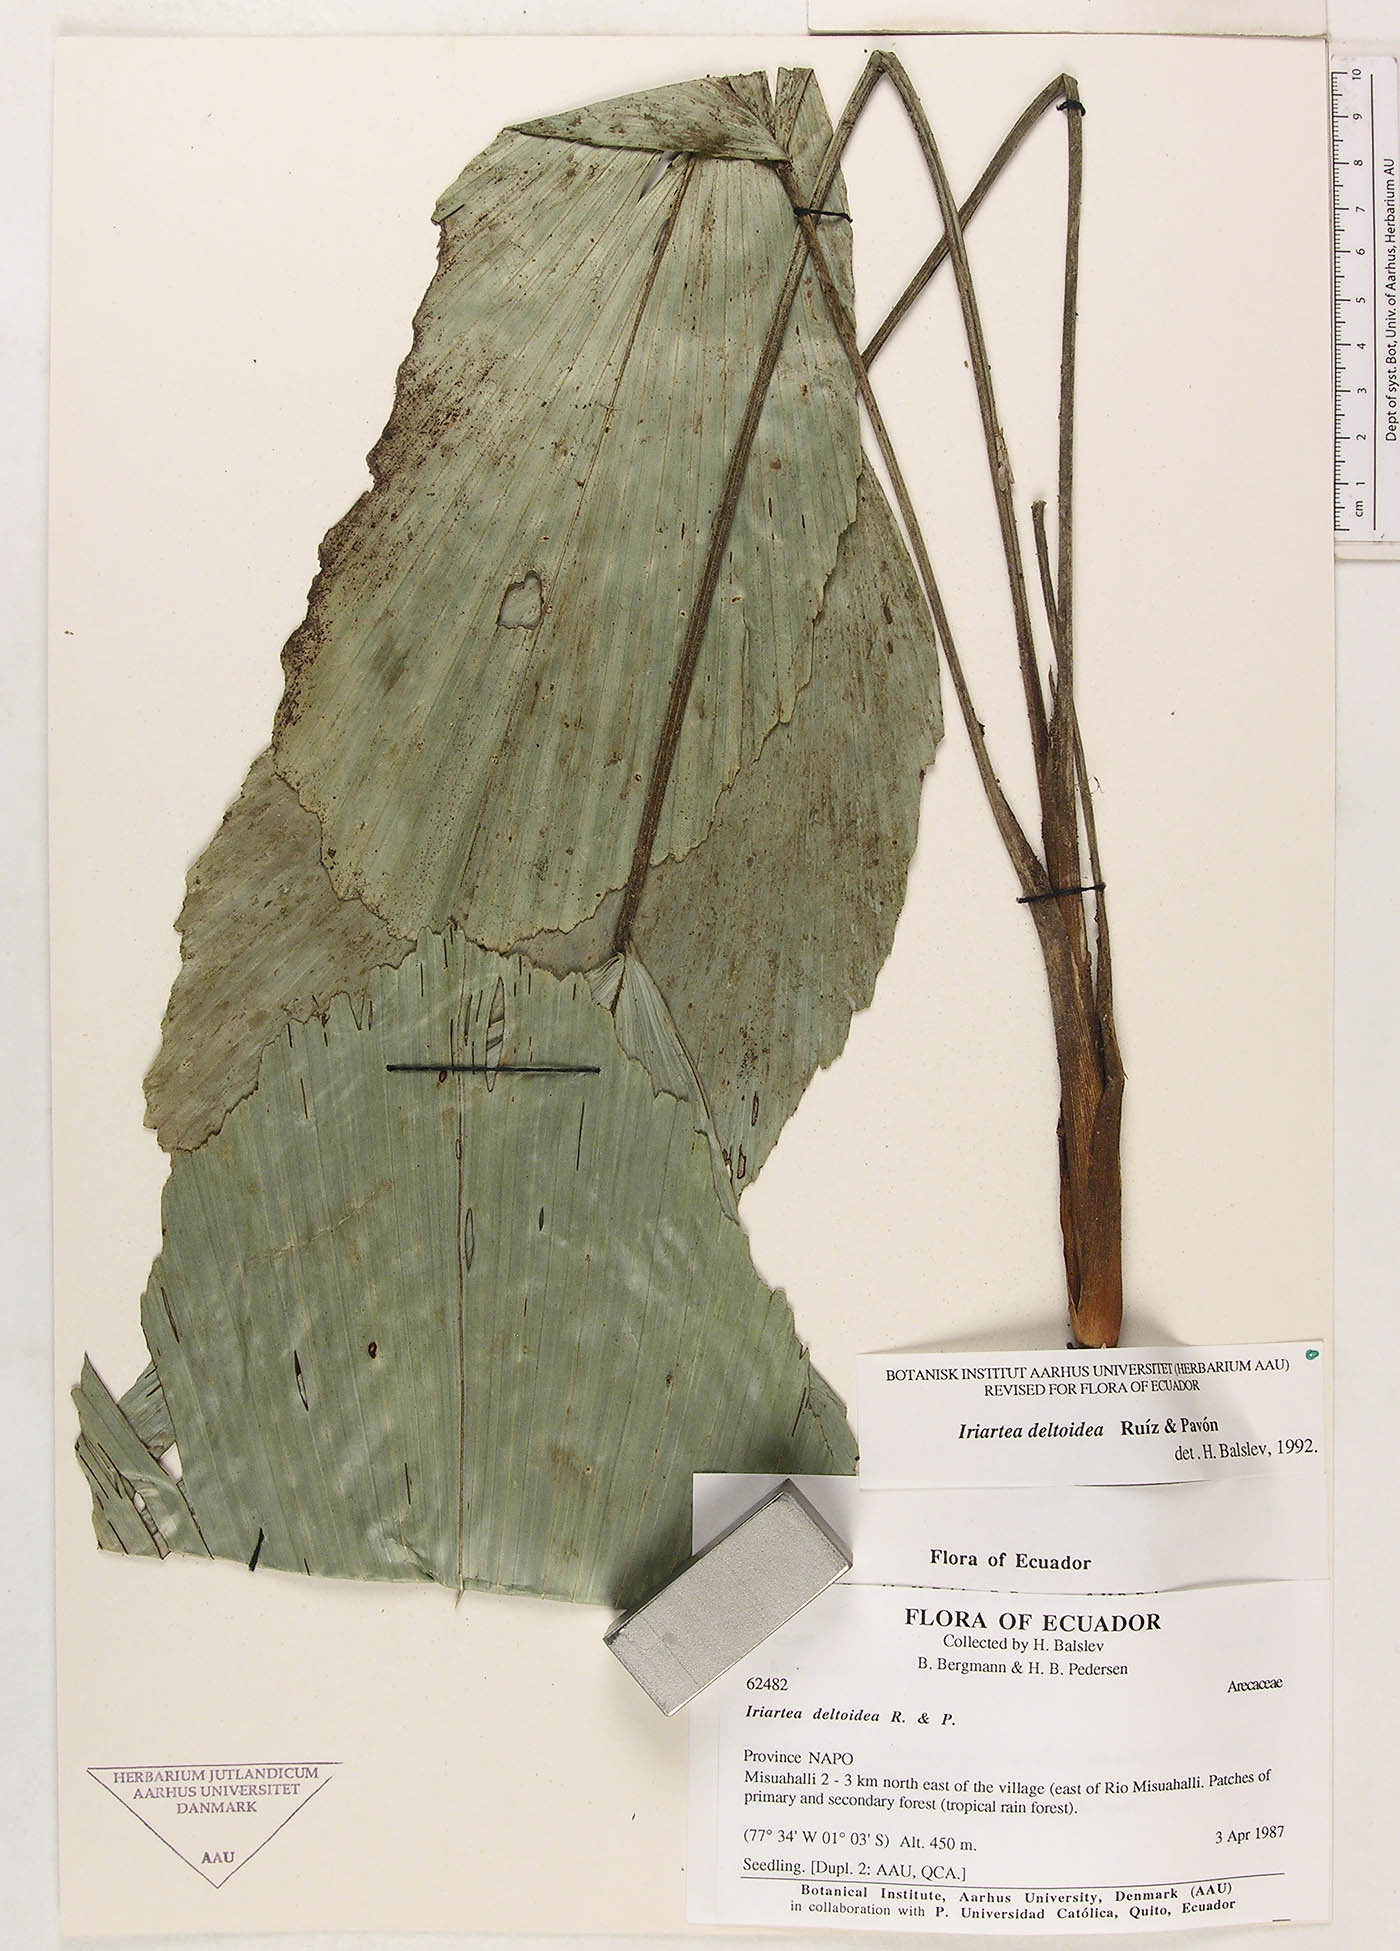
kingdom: Plantae
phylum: Tracheophyta
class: Liliopsida
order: Arecales
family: Arecaceae
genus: Iriartea
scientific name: Iriartea deltoidea
